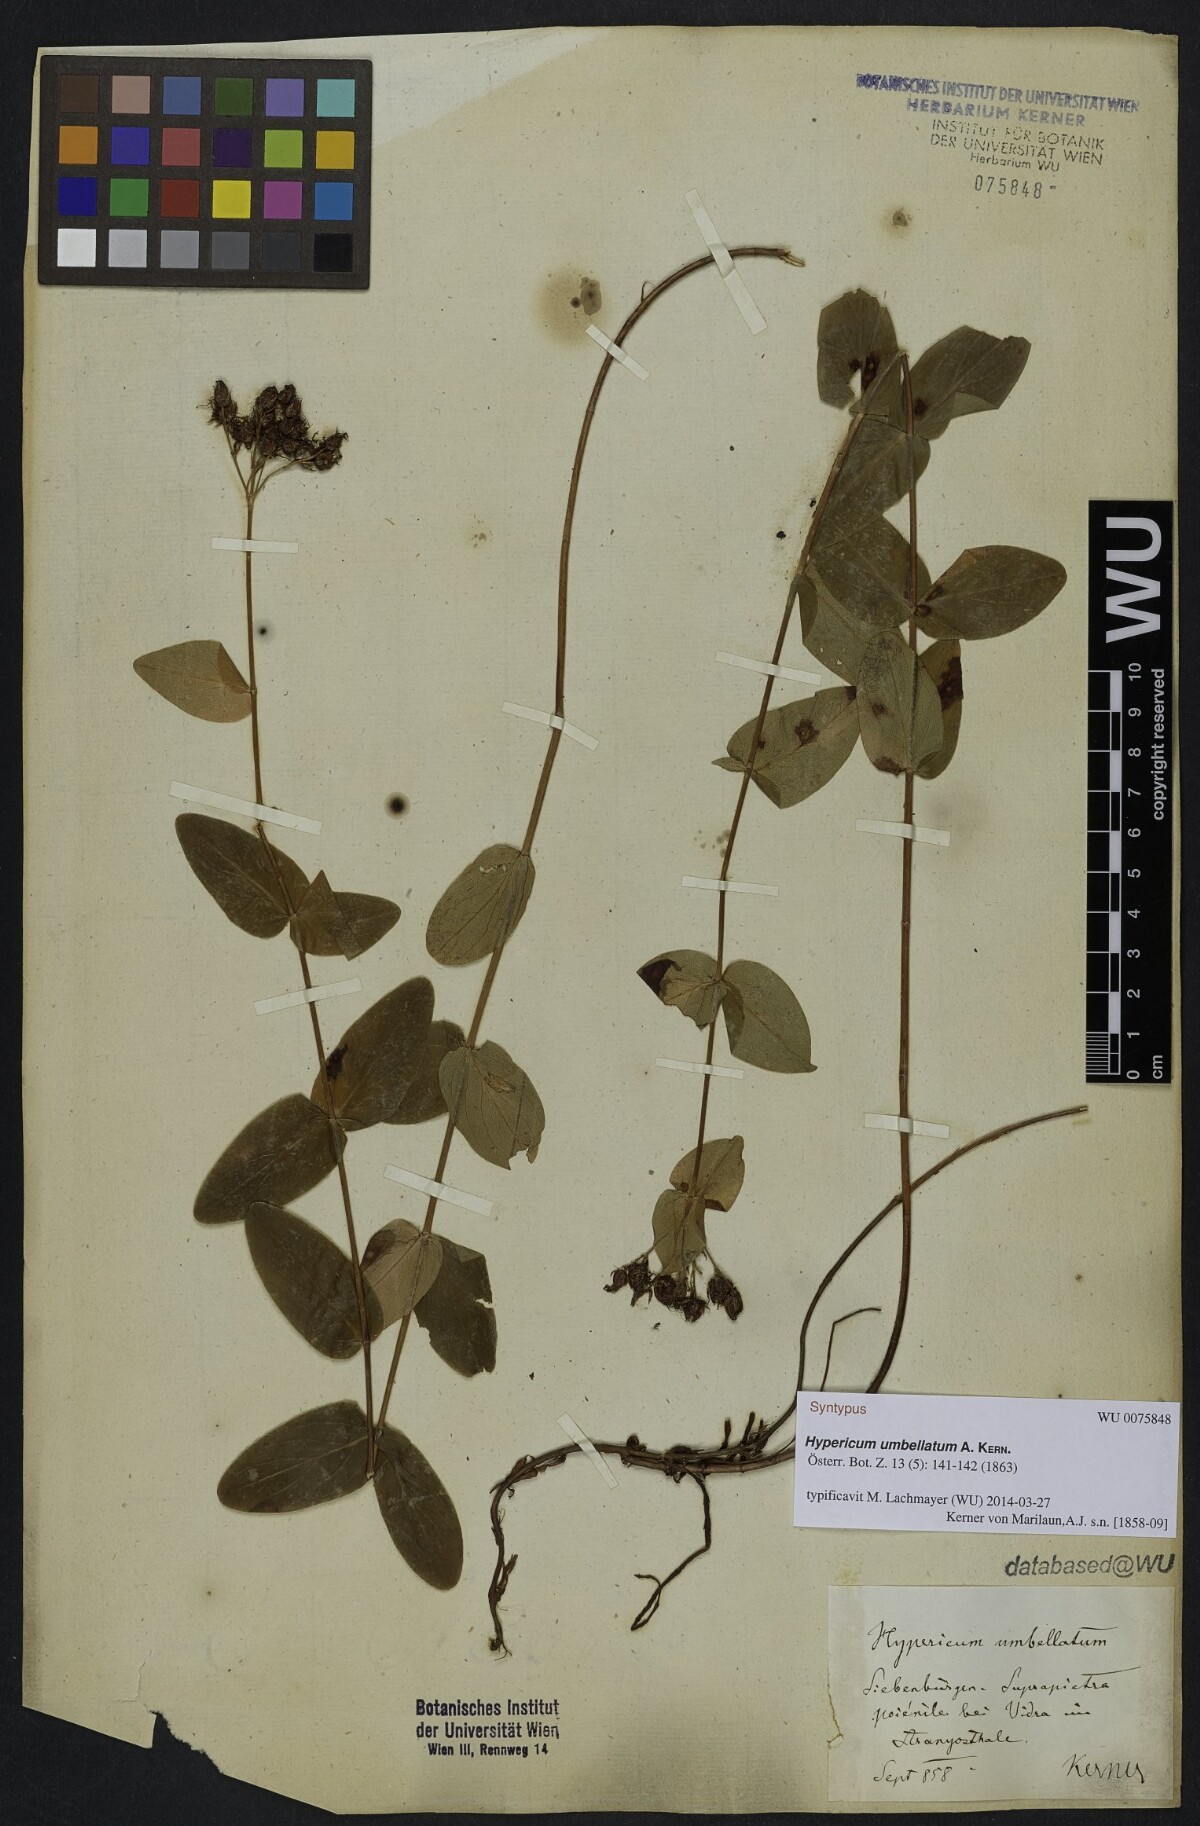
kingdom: Plantae
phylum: Tracheophyta
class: Magnoliopsida
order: Malpighiales
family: Hypericaceae
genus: Hypericum
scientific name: Hypericum umbellatum
